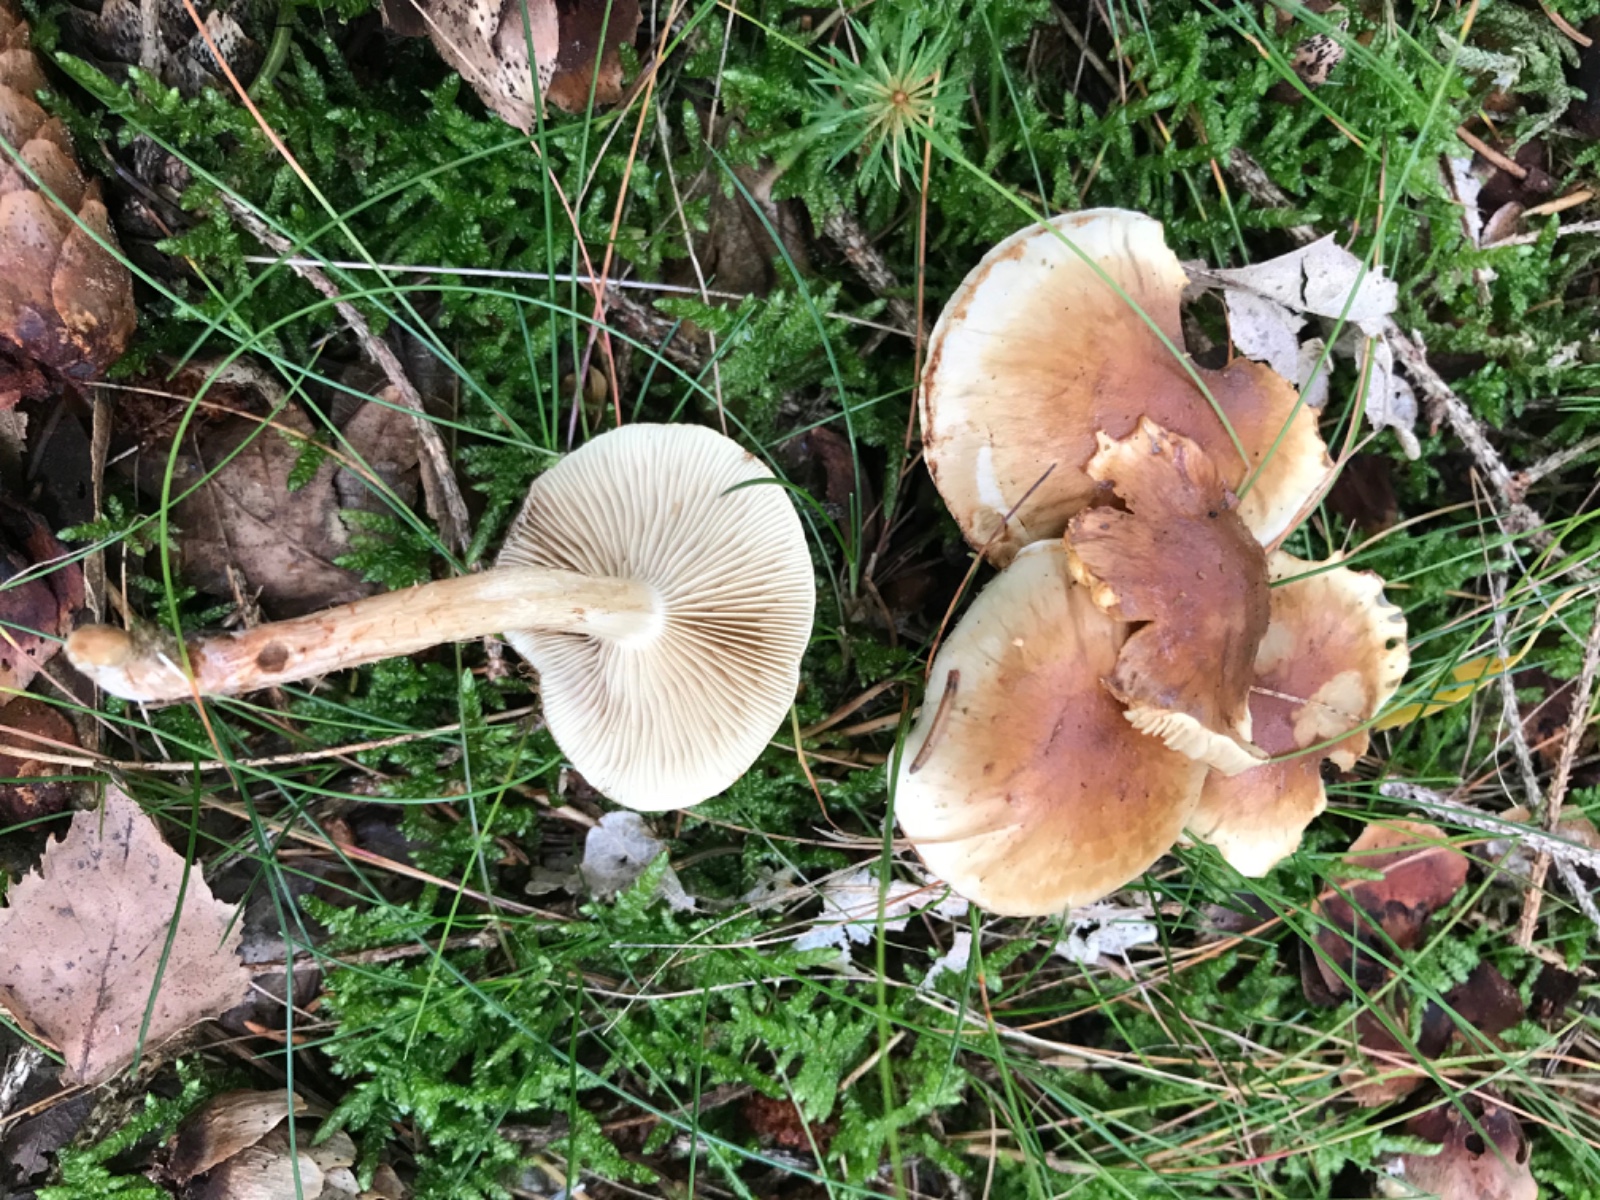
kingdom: Fungi
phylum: Basidiomycota
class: Agaricomycetes
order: Agaricales
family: Strophariaceae
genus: Hypholoma
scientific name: Hypholoma capnoides
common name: gran-svovlhat
